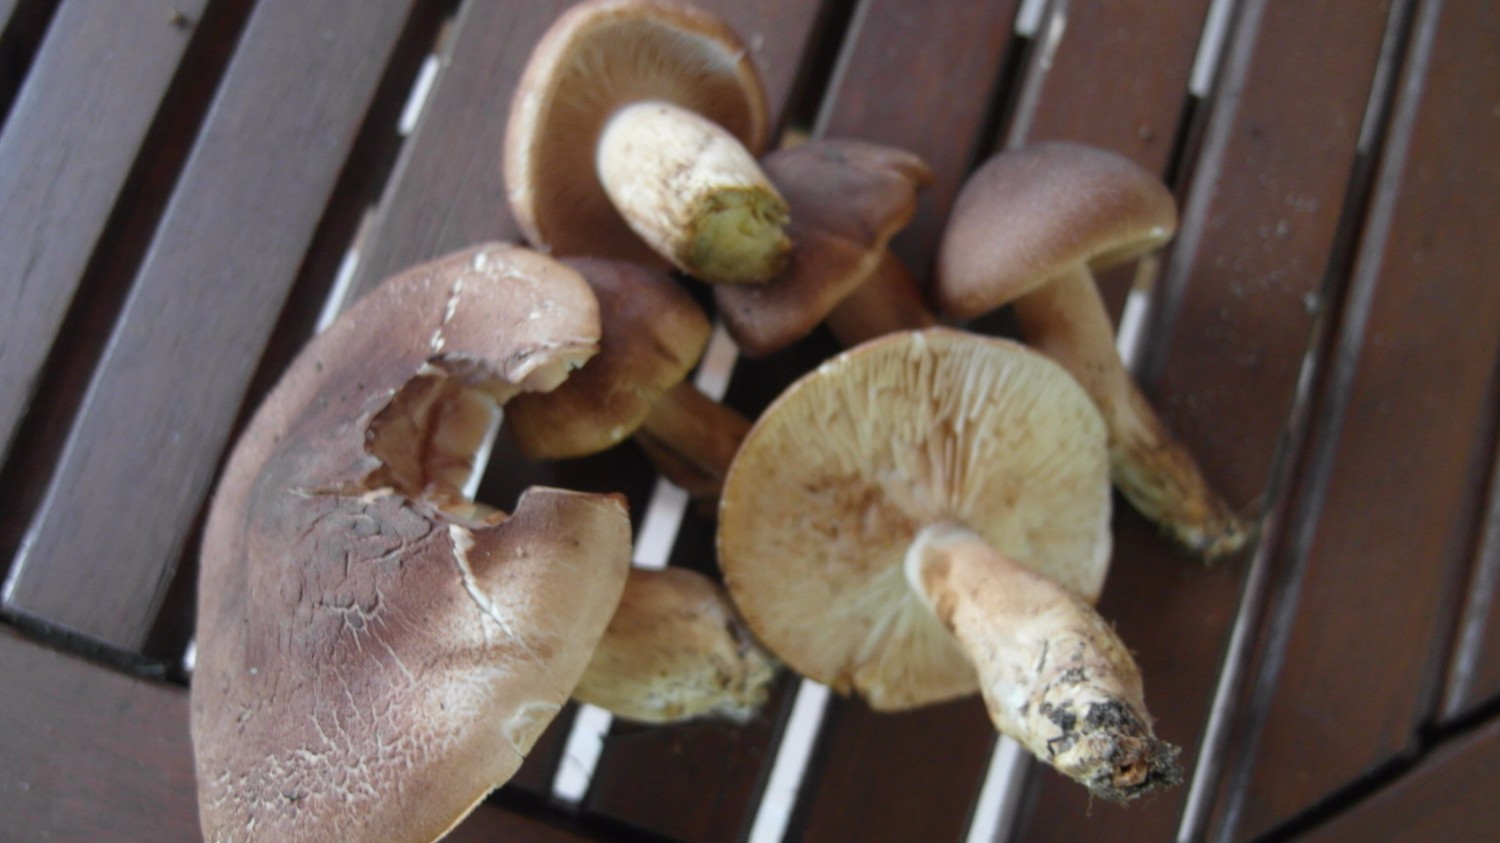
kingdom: Fungi
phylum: Basidiomycota
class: Agaricomycetes
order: Agaricales
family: Tricholomataceae
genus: Tricholoma
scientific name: Tricholoma imbricatum
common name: skællet ridderhat
